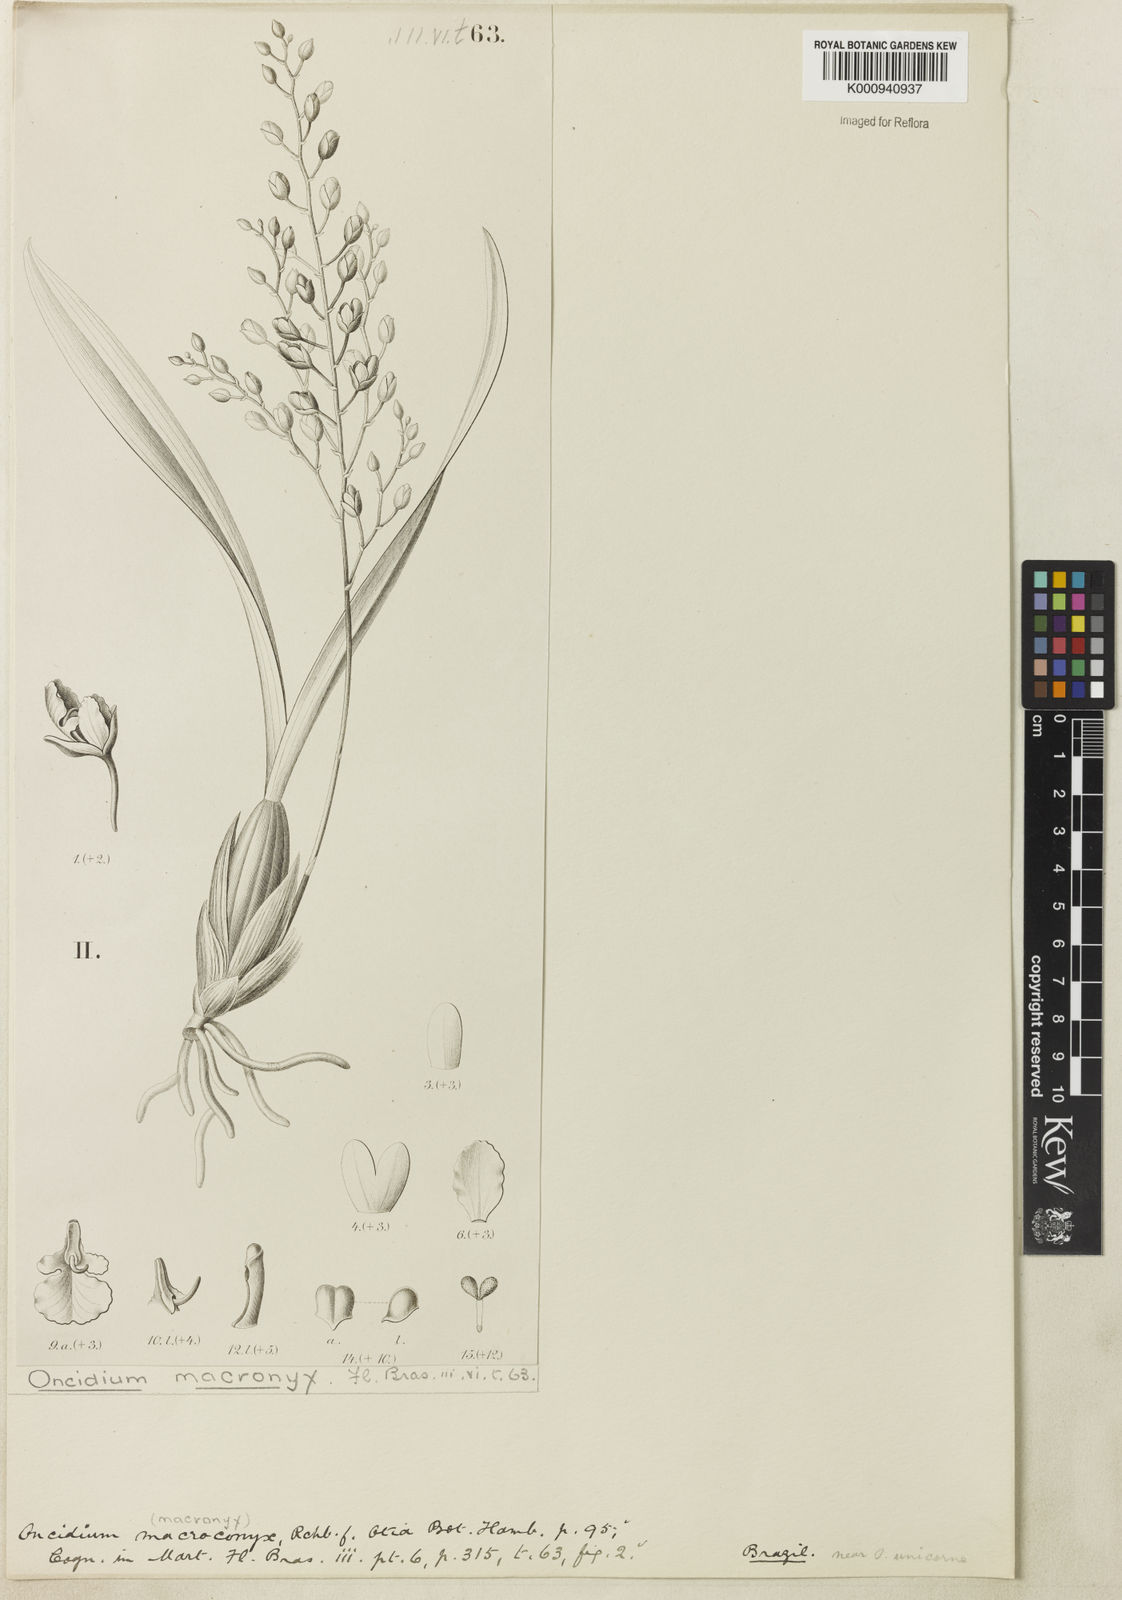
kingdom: Plantae
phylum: Tracheophyta
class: Liliopsida
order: Asparagales
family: Orchidaceae
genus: Gomesa
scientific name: Gomesa florida
